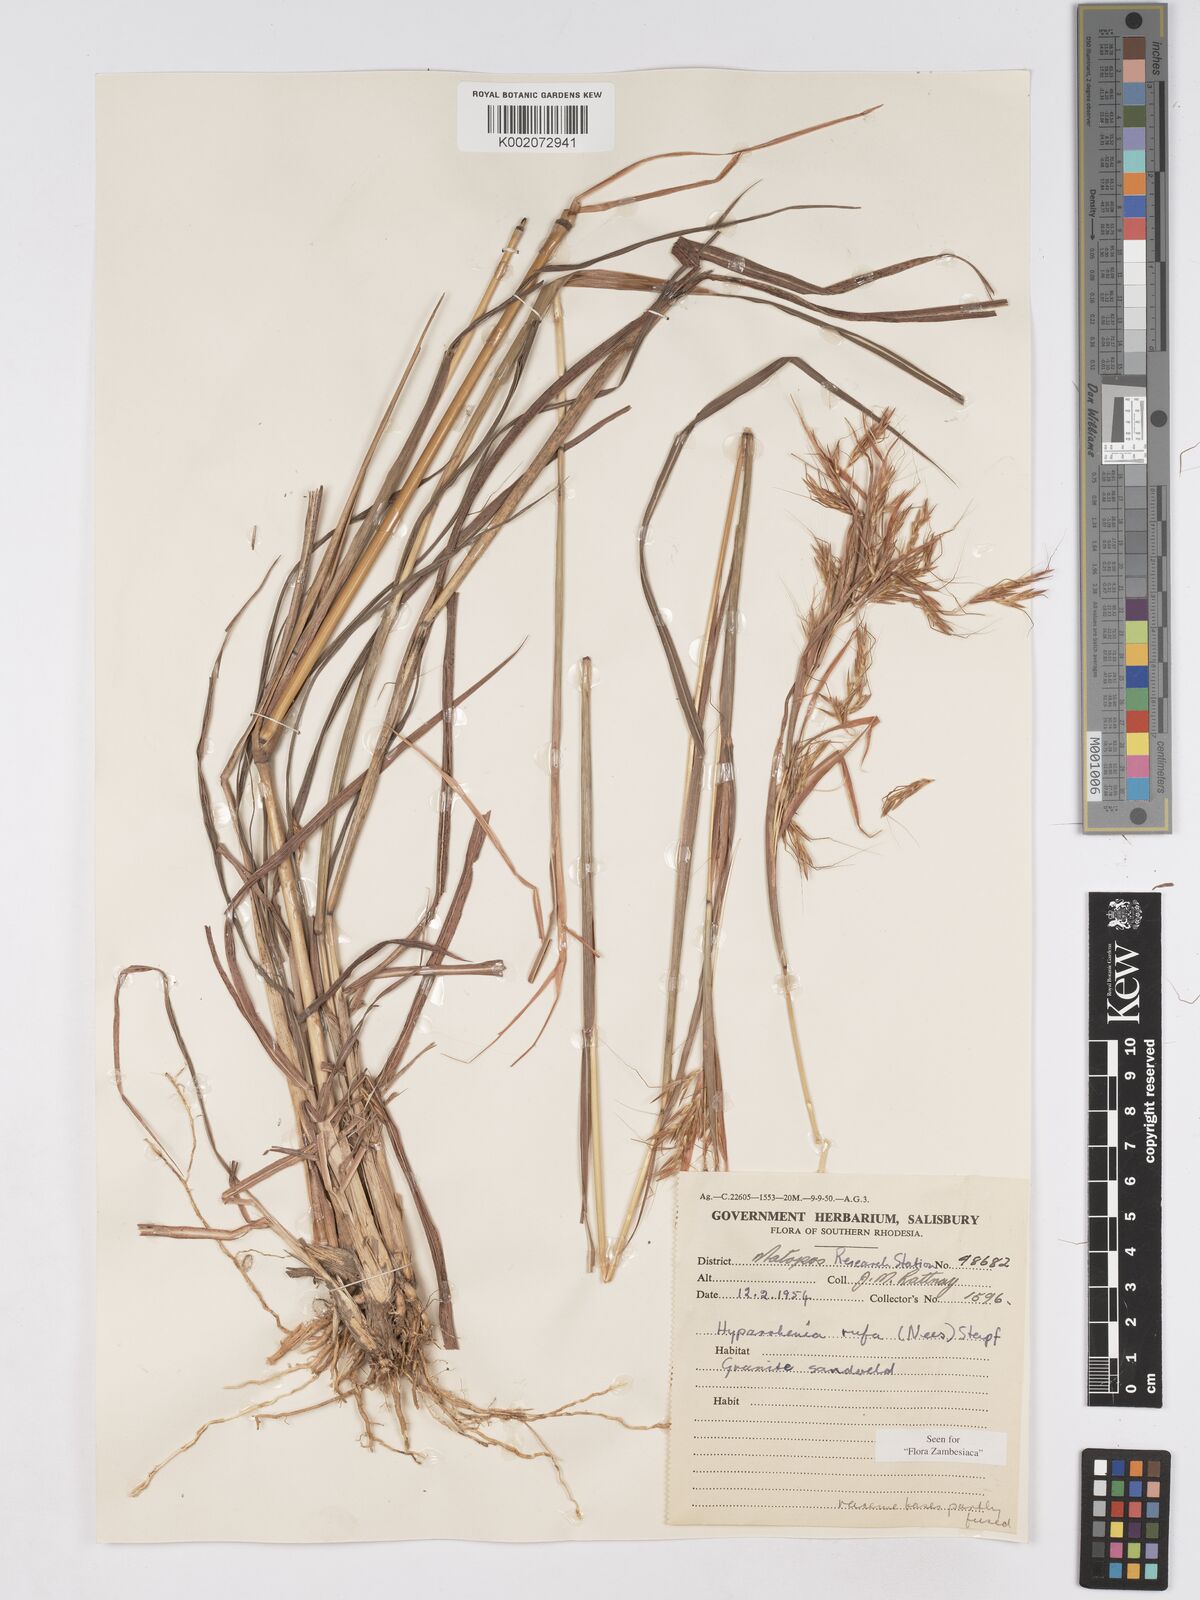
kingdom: Plantae
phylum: Tracheophyta
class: Liliopsida
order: Poales
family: Poaceae
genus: Hyparrhenia
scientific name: Hyparrhenia rufa
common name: Jaraguagrass
